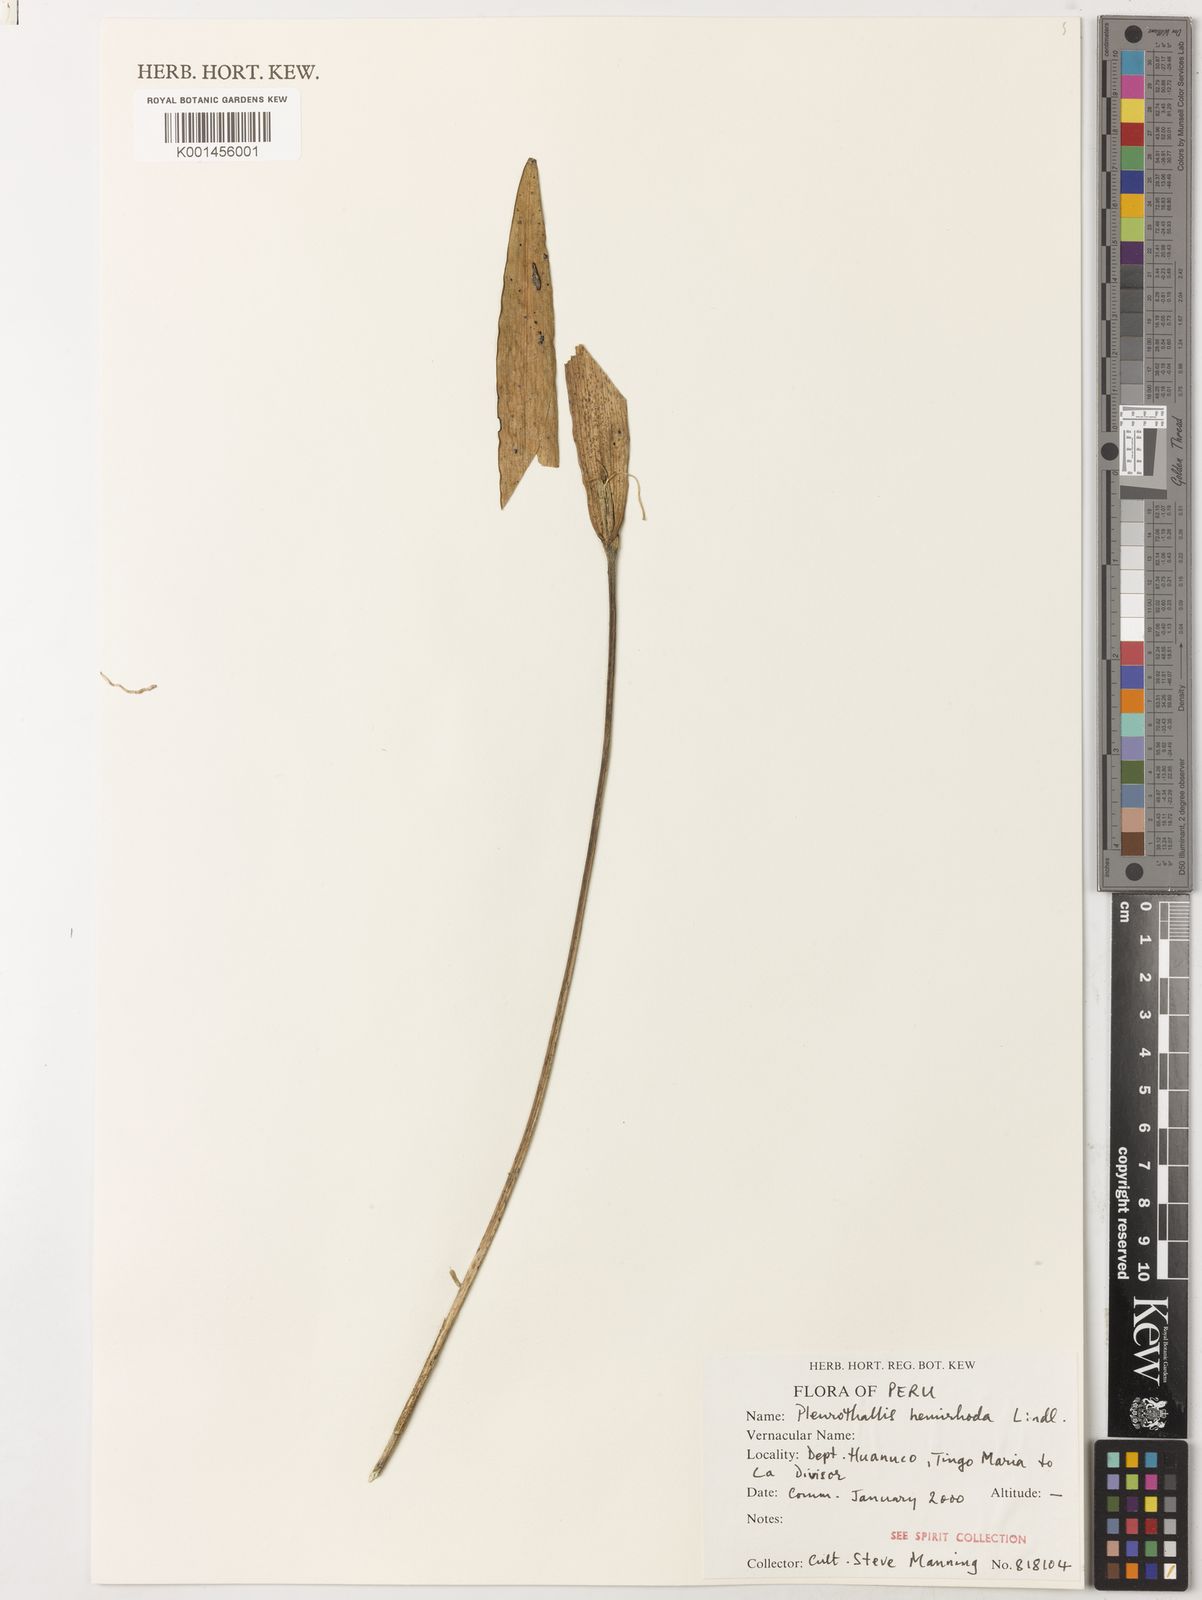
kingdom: Plantae
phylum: Tracheophyta
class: Liliopsida
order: Asparagales
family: Orchidaceae
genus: Pleurothallis
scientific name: Pleurothallis nuda
